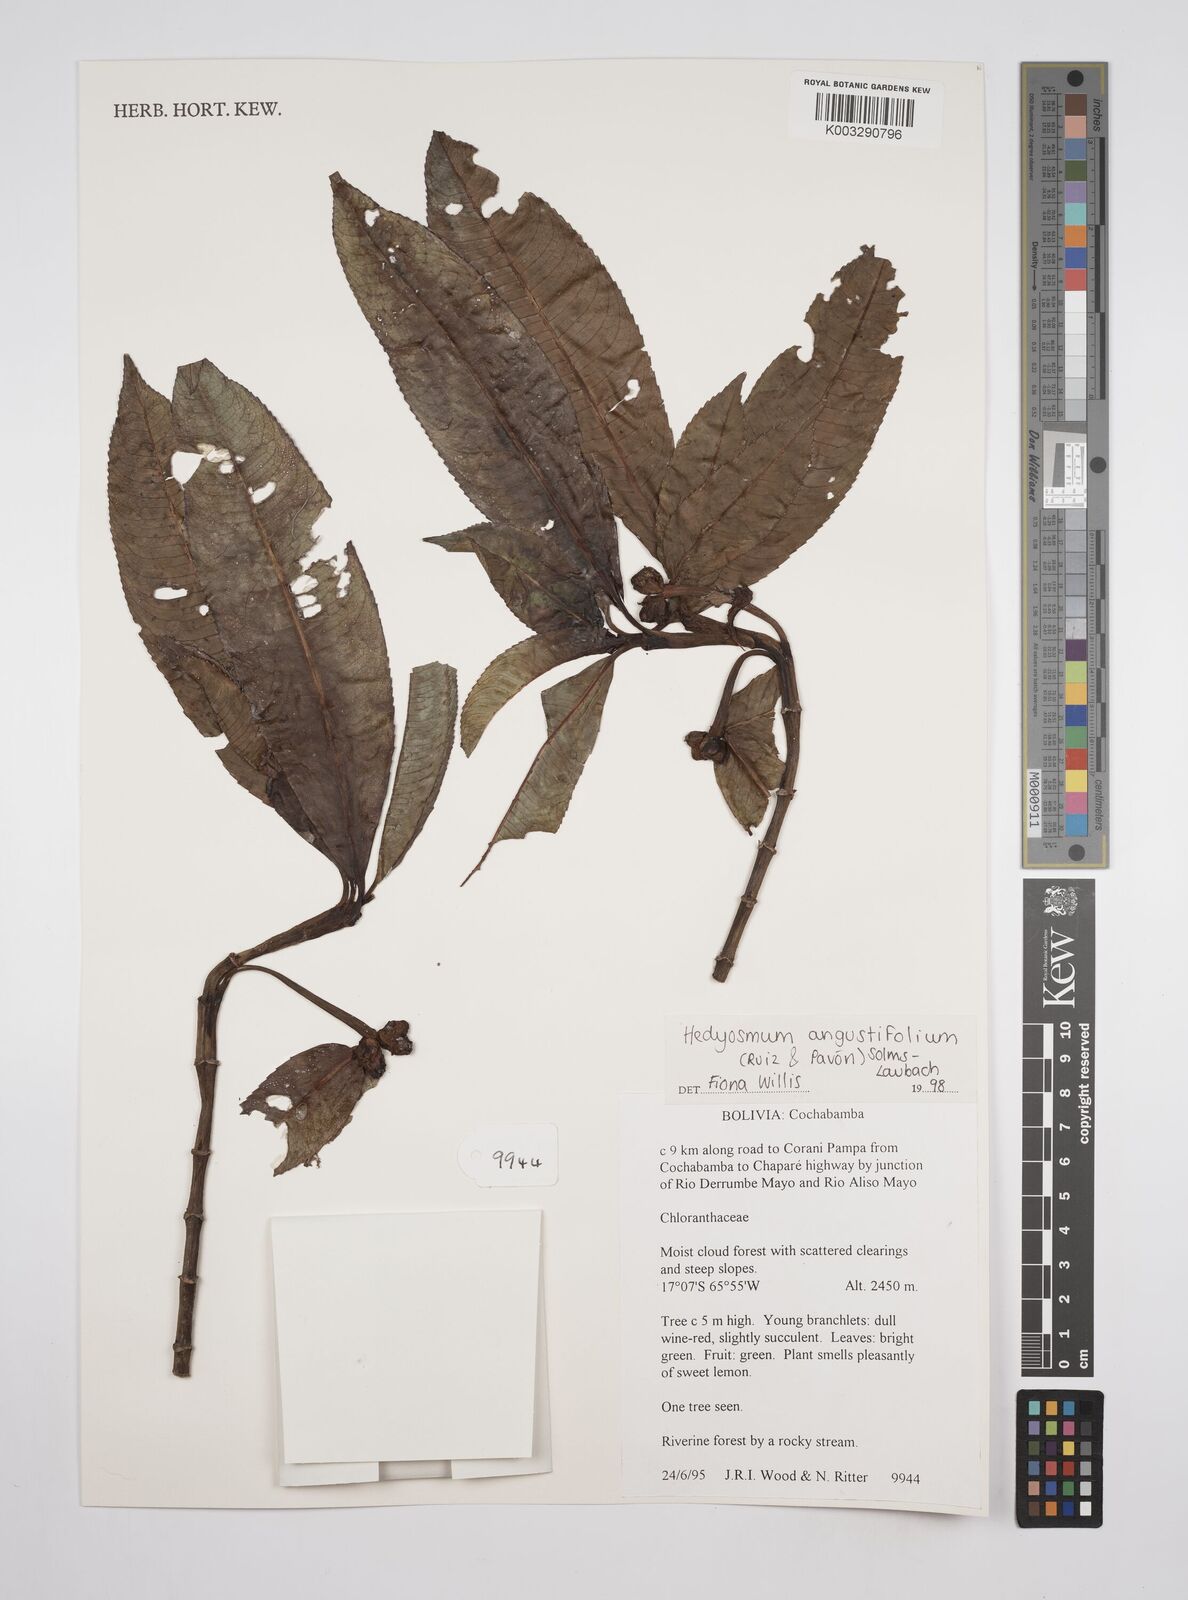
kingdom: Plantae
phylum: Tracheophyta
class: Magnoliopsida
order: Chloranthales
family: Chloranthaceae
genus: Hedyosmum
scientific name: Hedyosmum angustifolium
